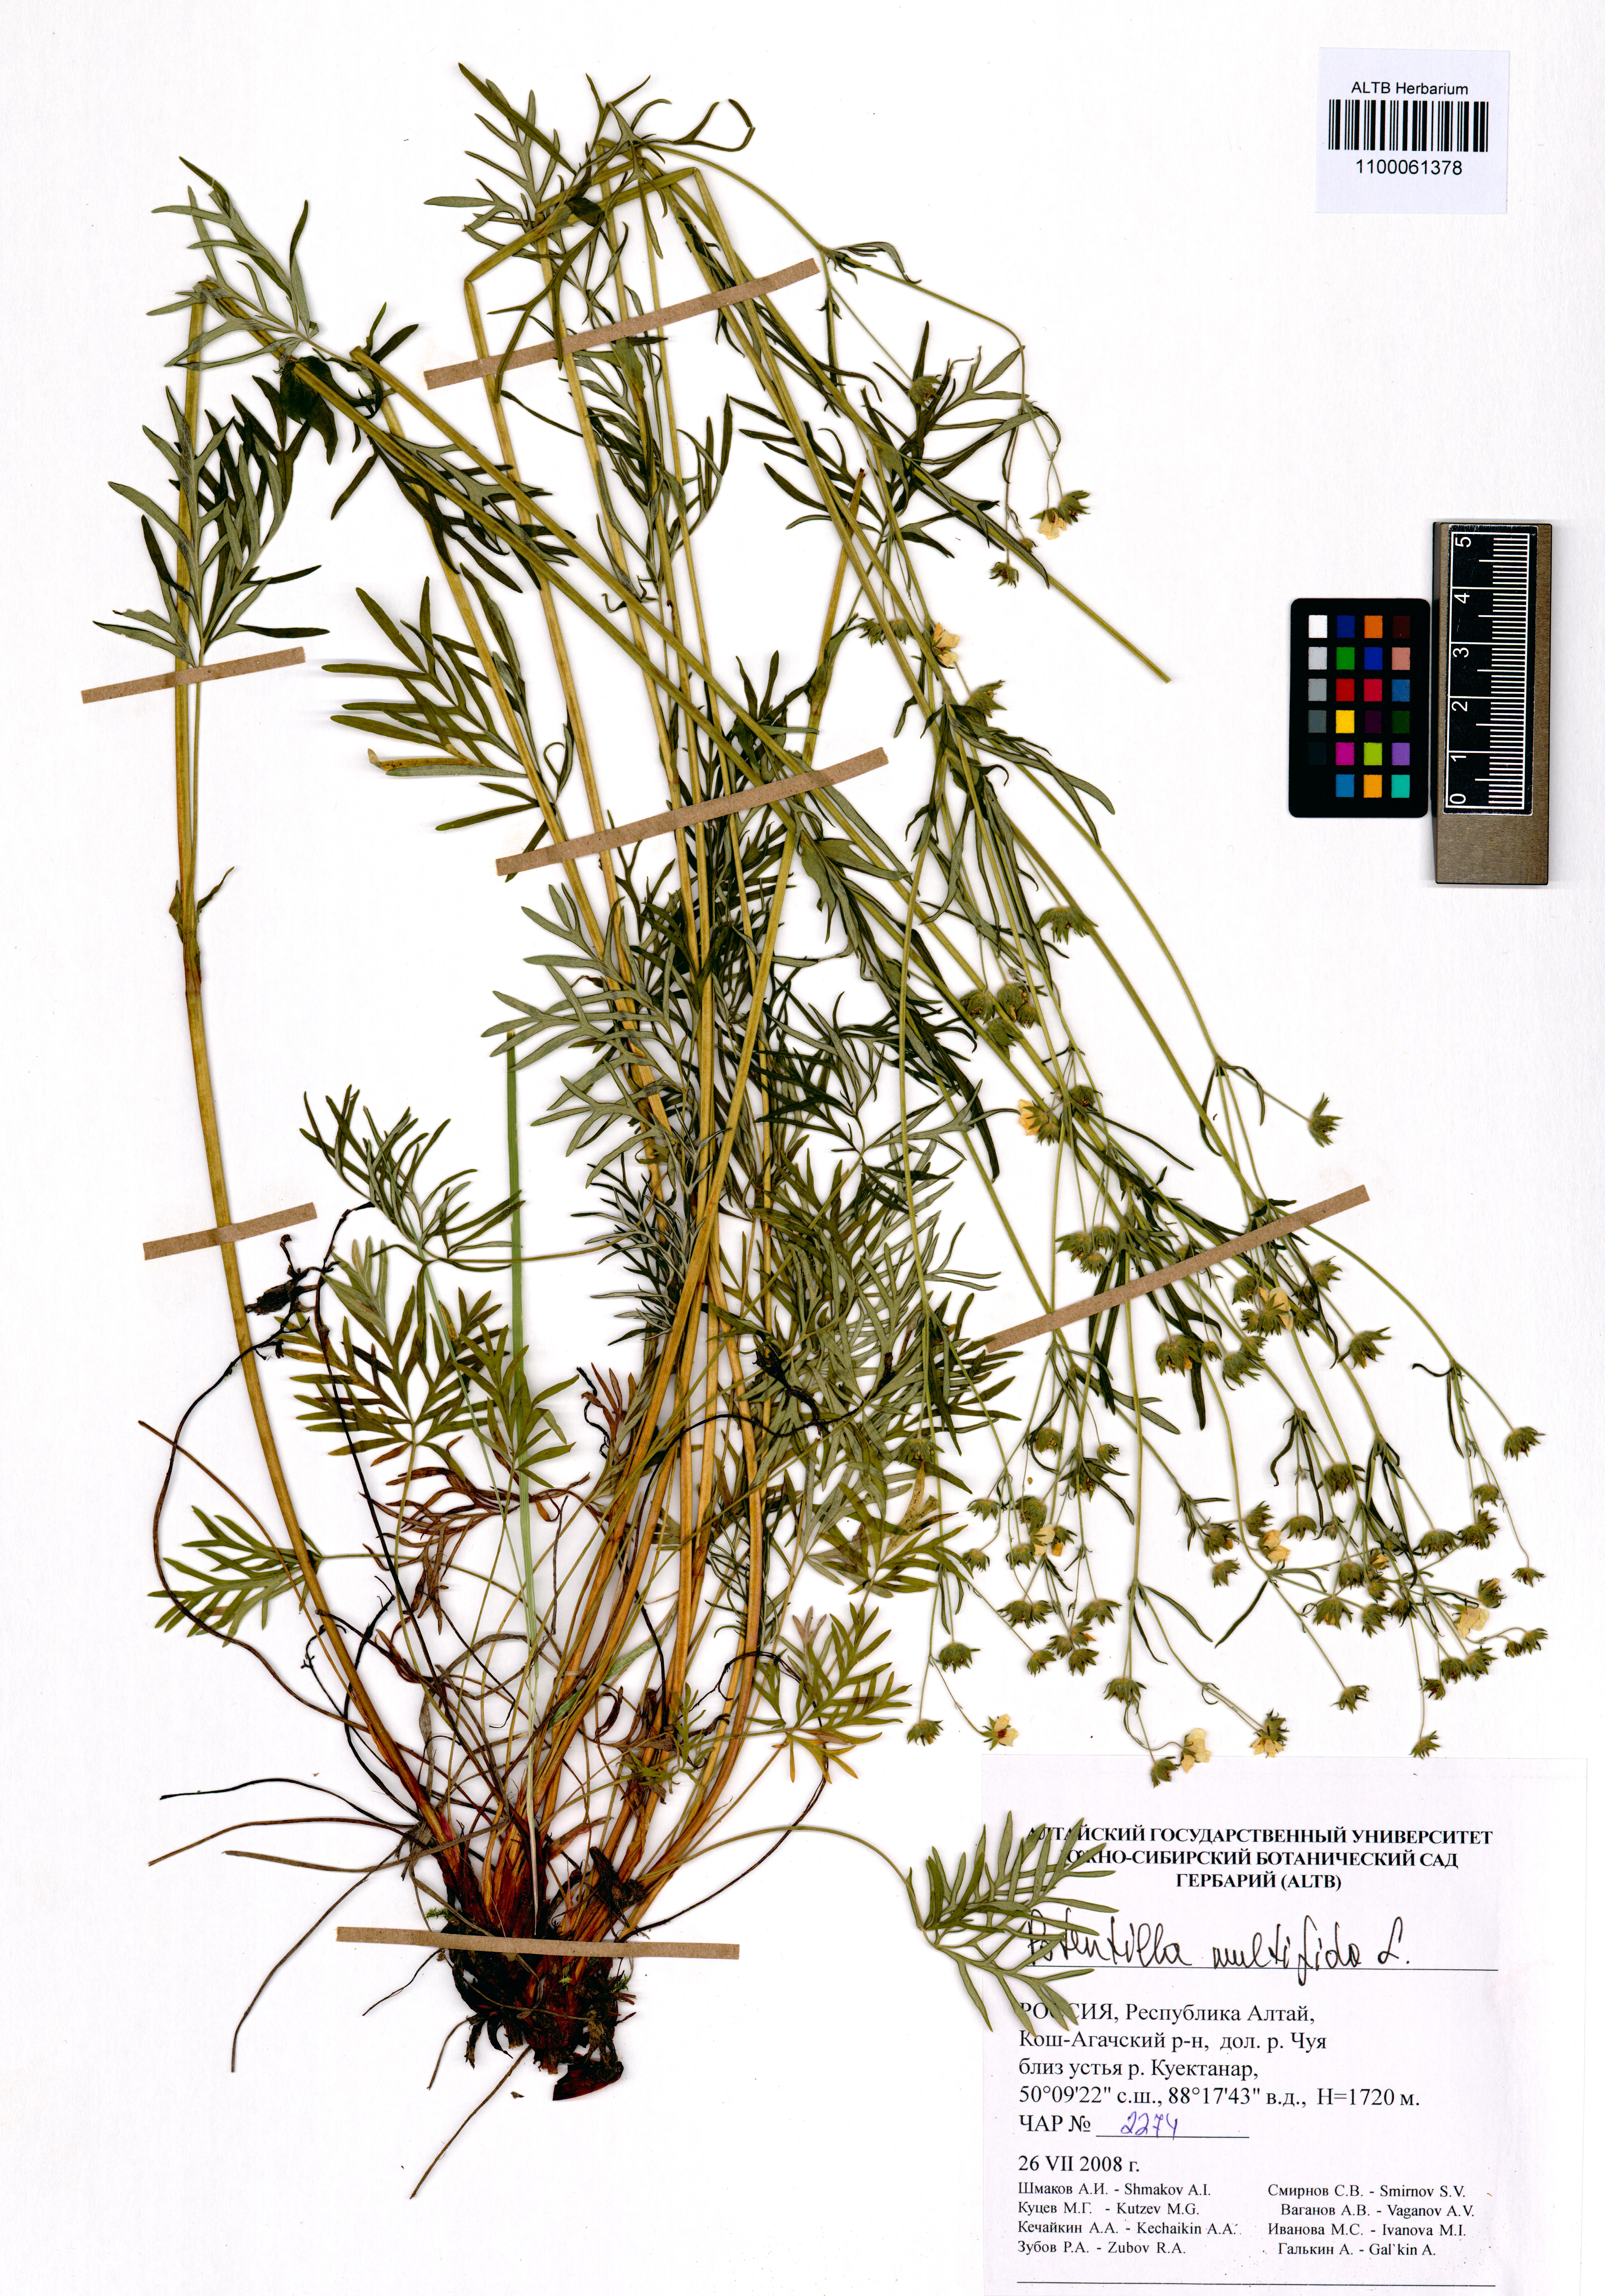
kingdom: Plantae
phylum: Tracheophyta
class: Magnoliopsida
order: Rosales
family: Rosaceae
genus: Potentilla
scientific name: Potentilla multifida
